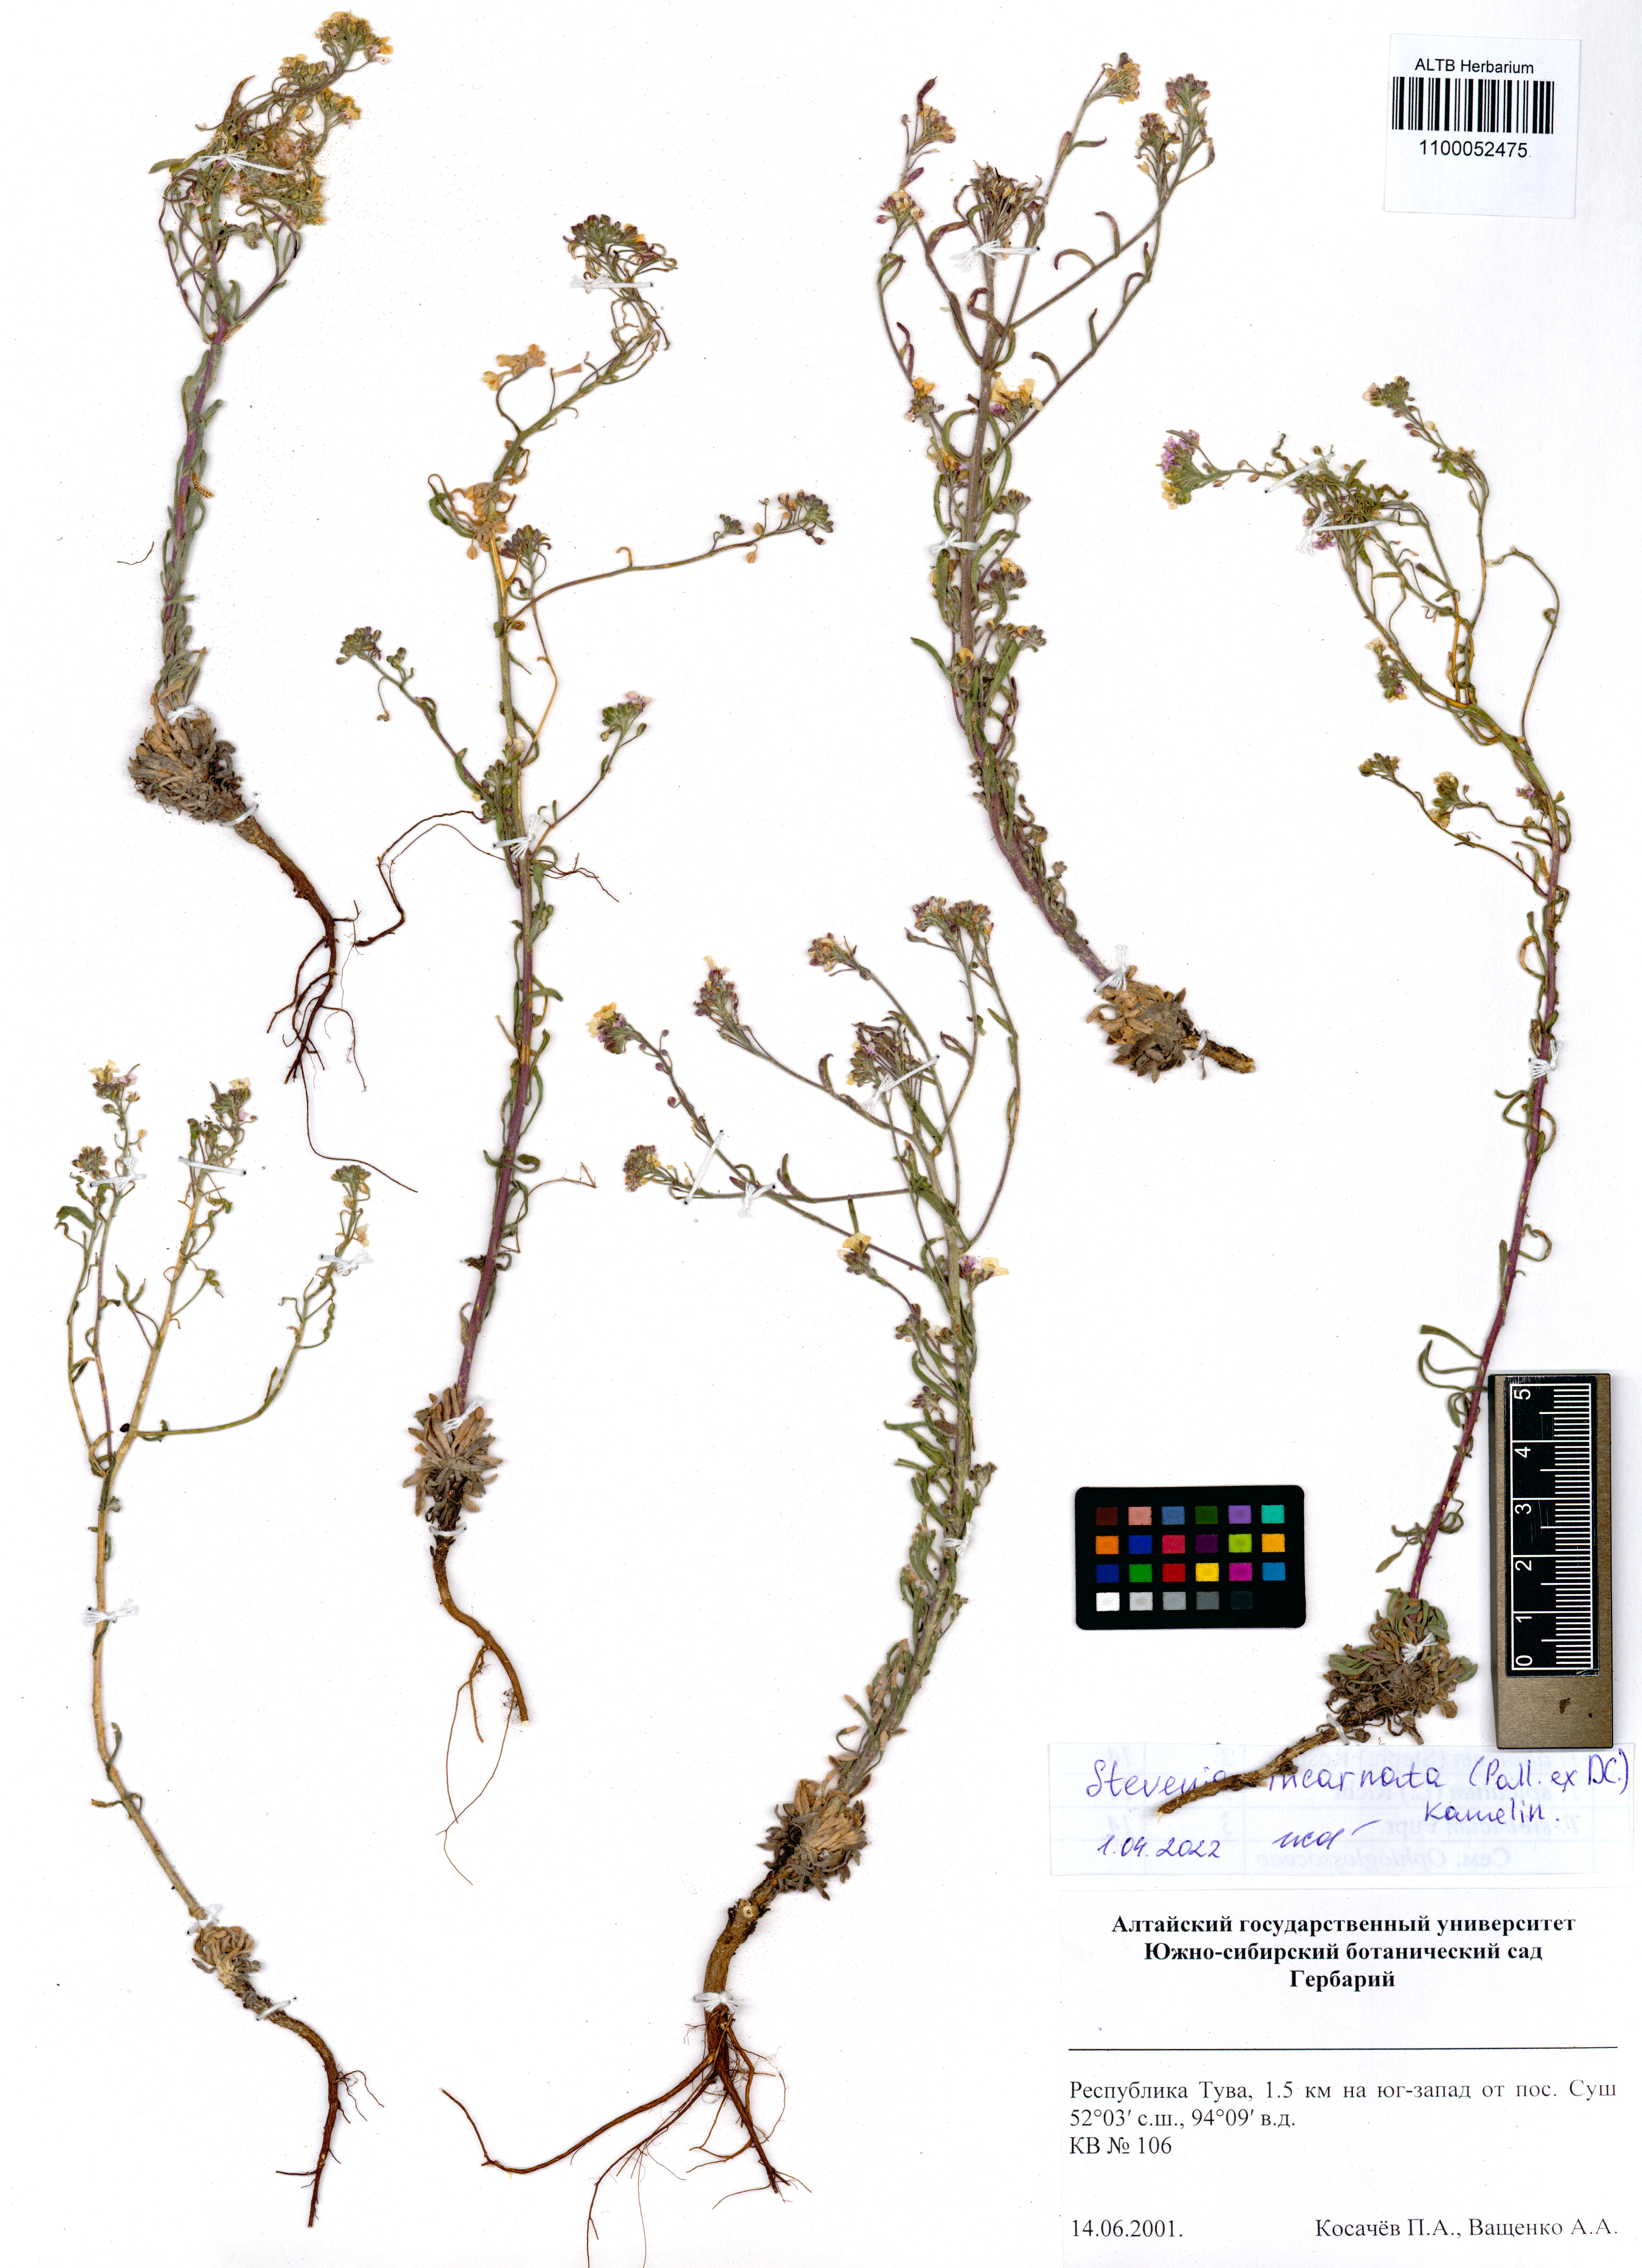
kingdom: Plantae
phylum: Tracheophyta
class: Magnoliopsida
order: Brassicales
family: Brassicaceae
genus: Stevenia
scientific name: Stevenia incarnata
